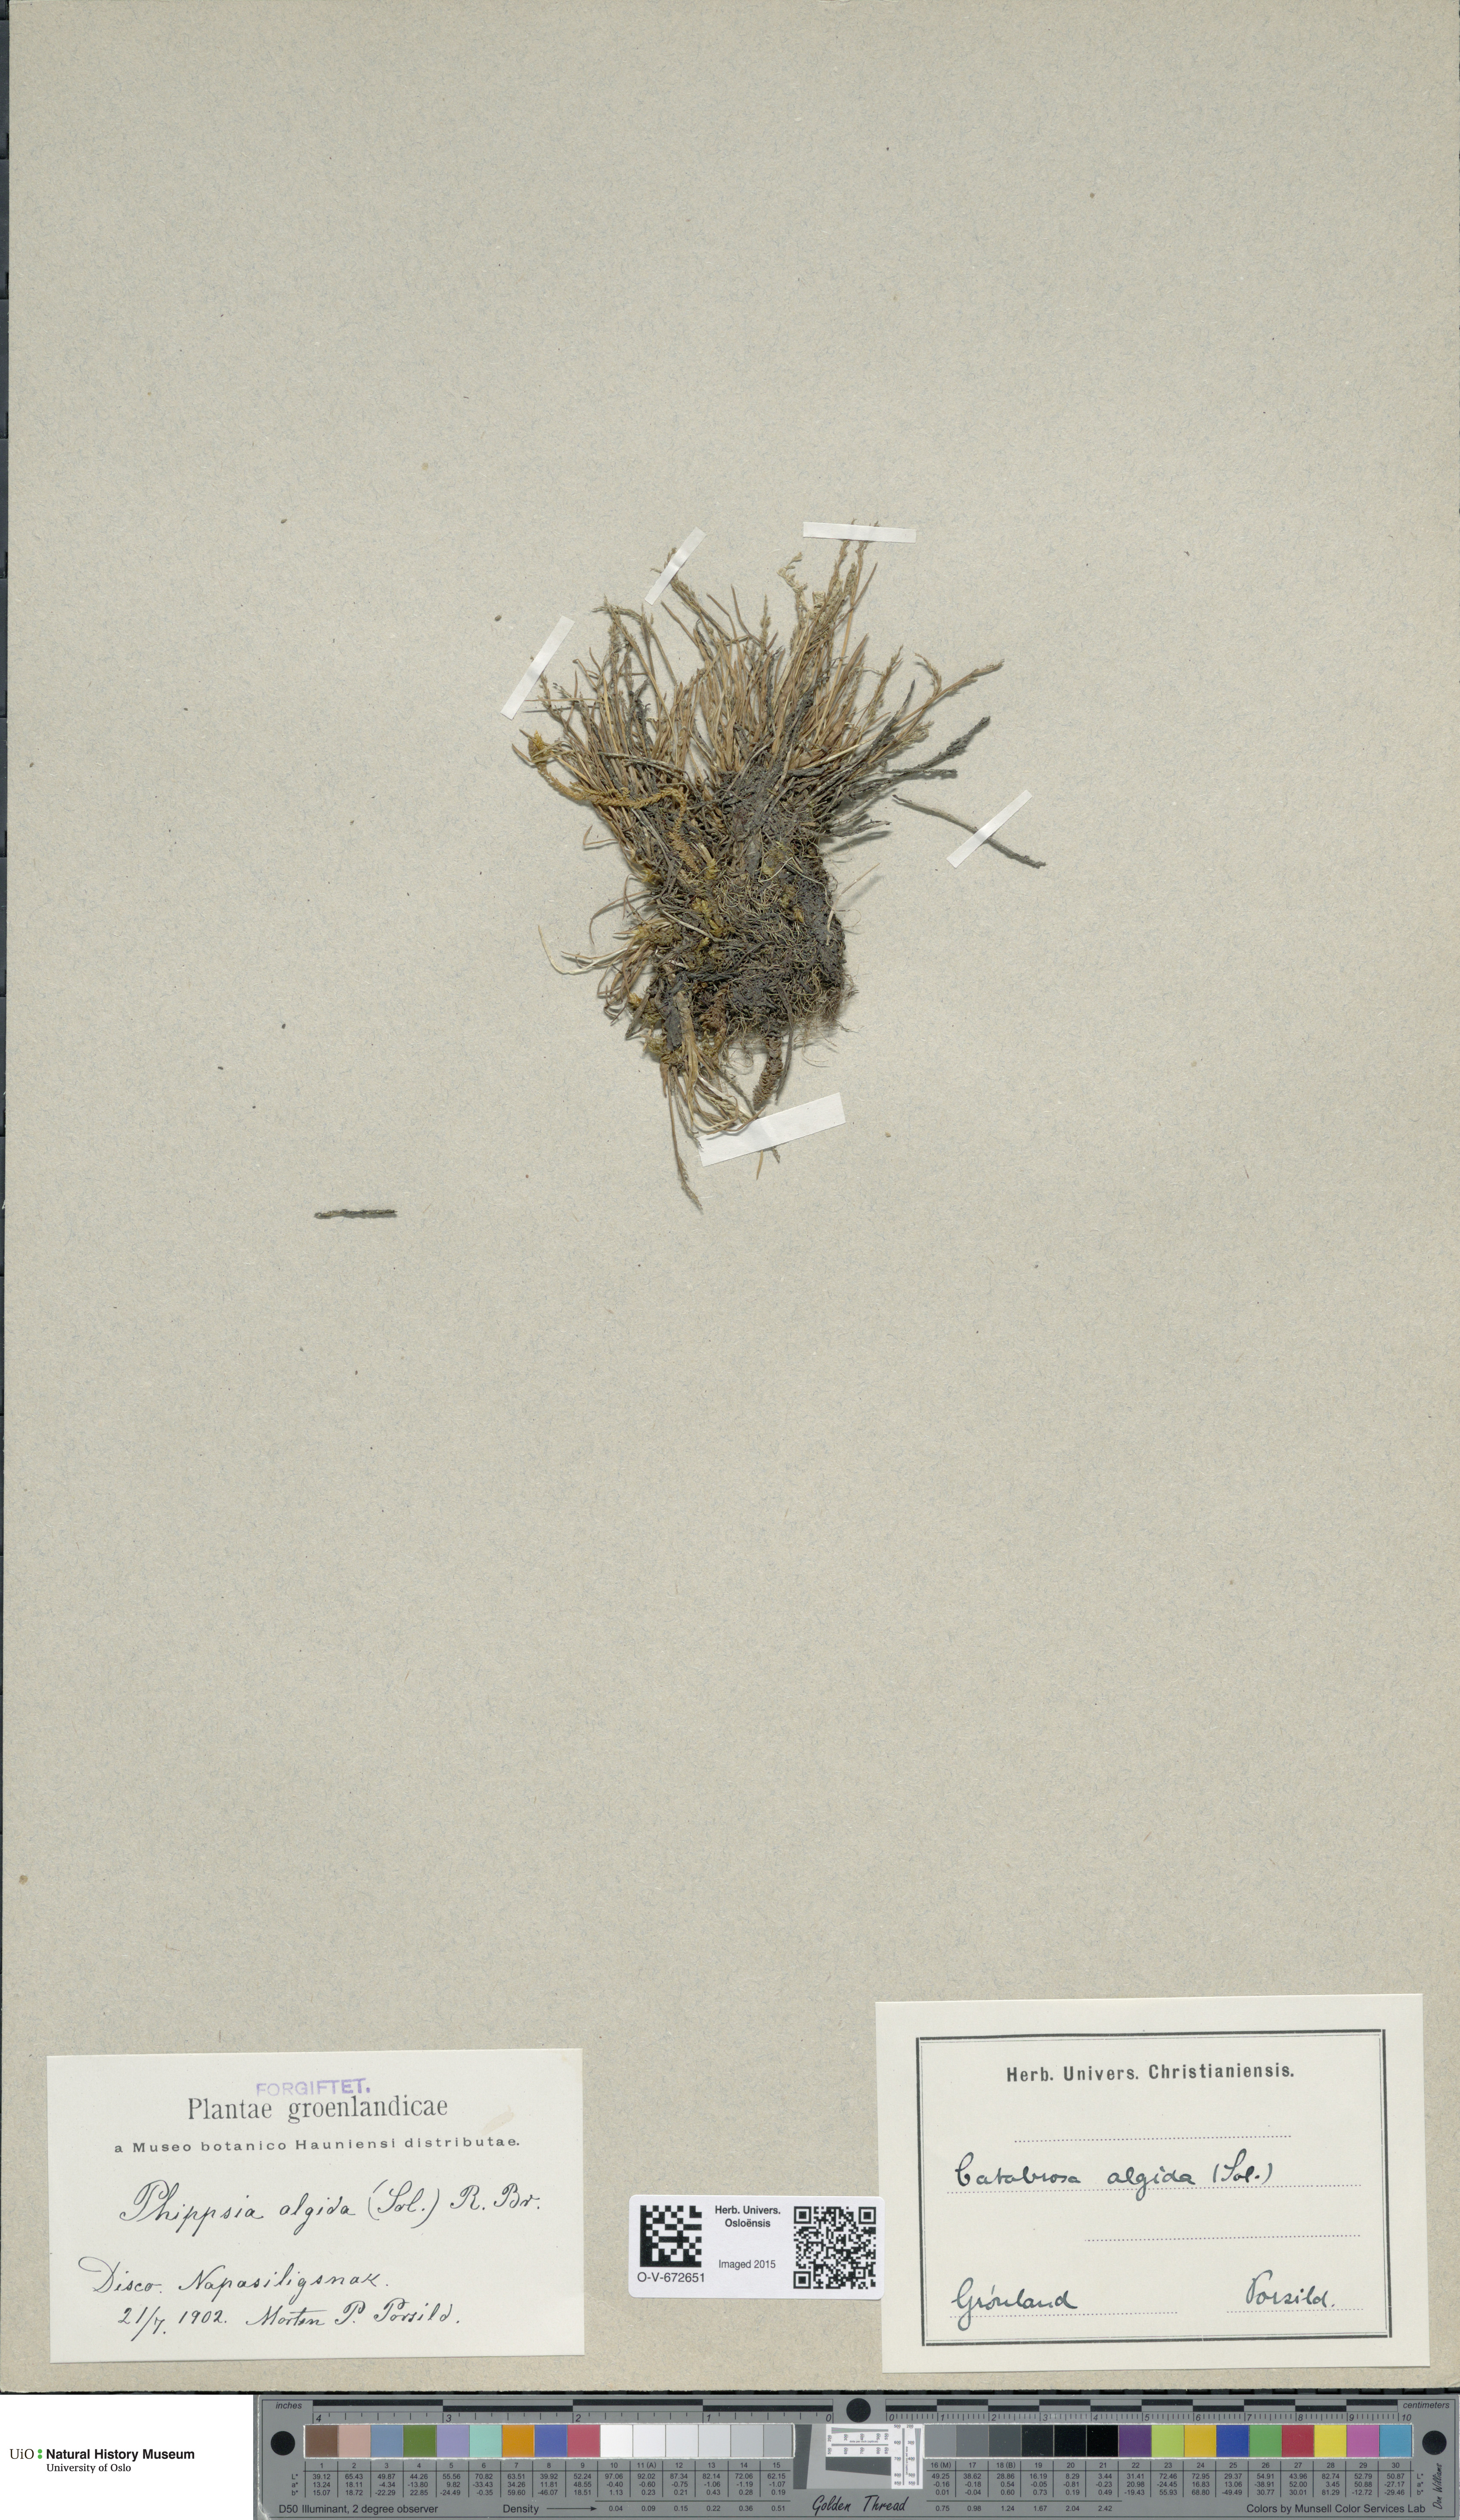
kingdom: Plantae
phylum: Tracheophyta
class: Liliopsida
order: Poales
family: Poaceae
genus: Phippsia
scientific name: Phippsia algida
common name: Ice grass
